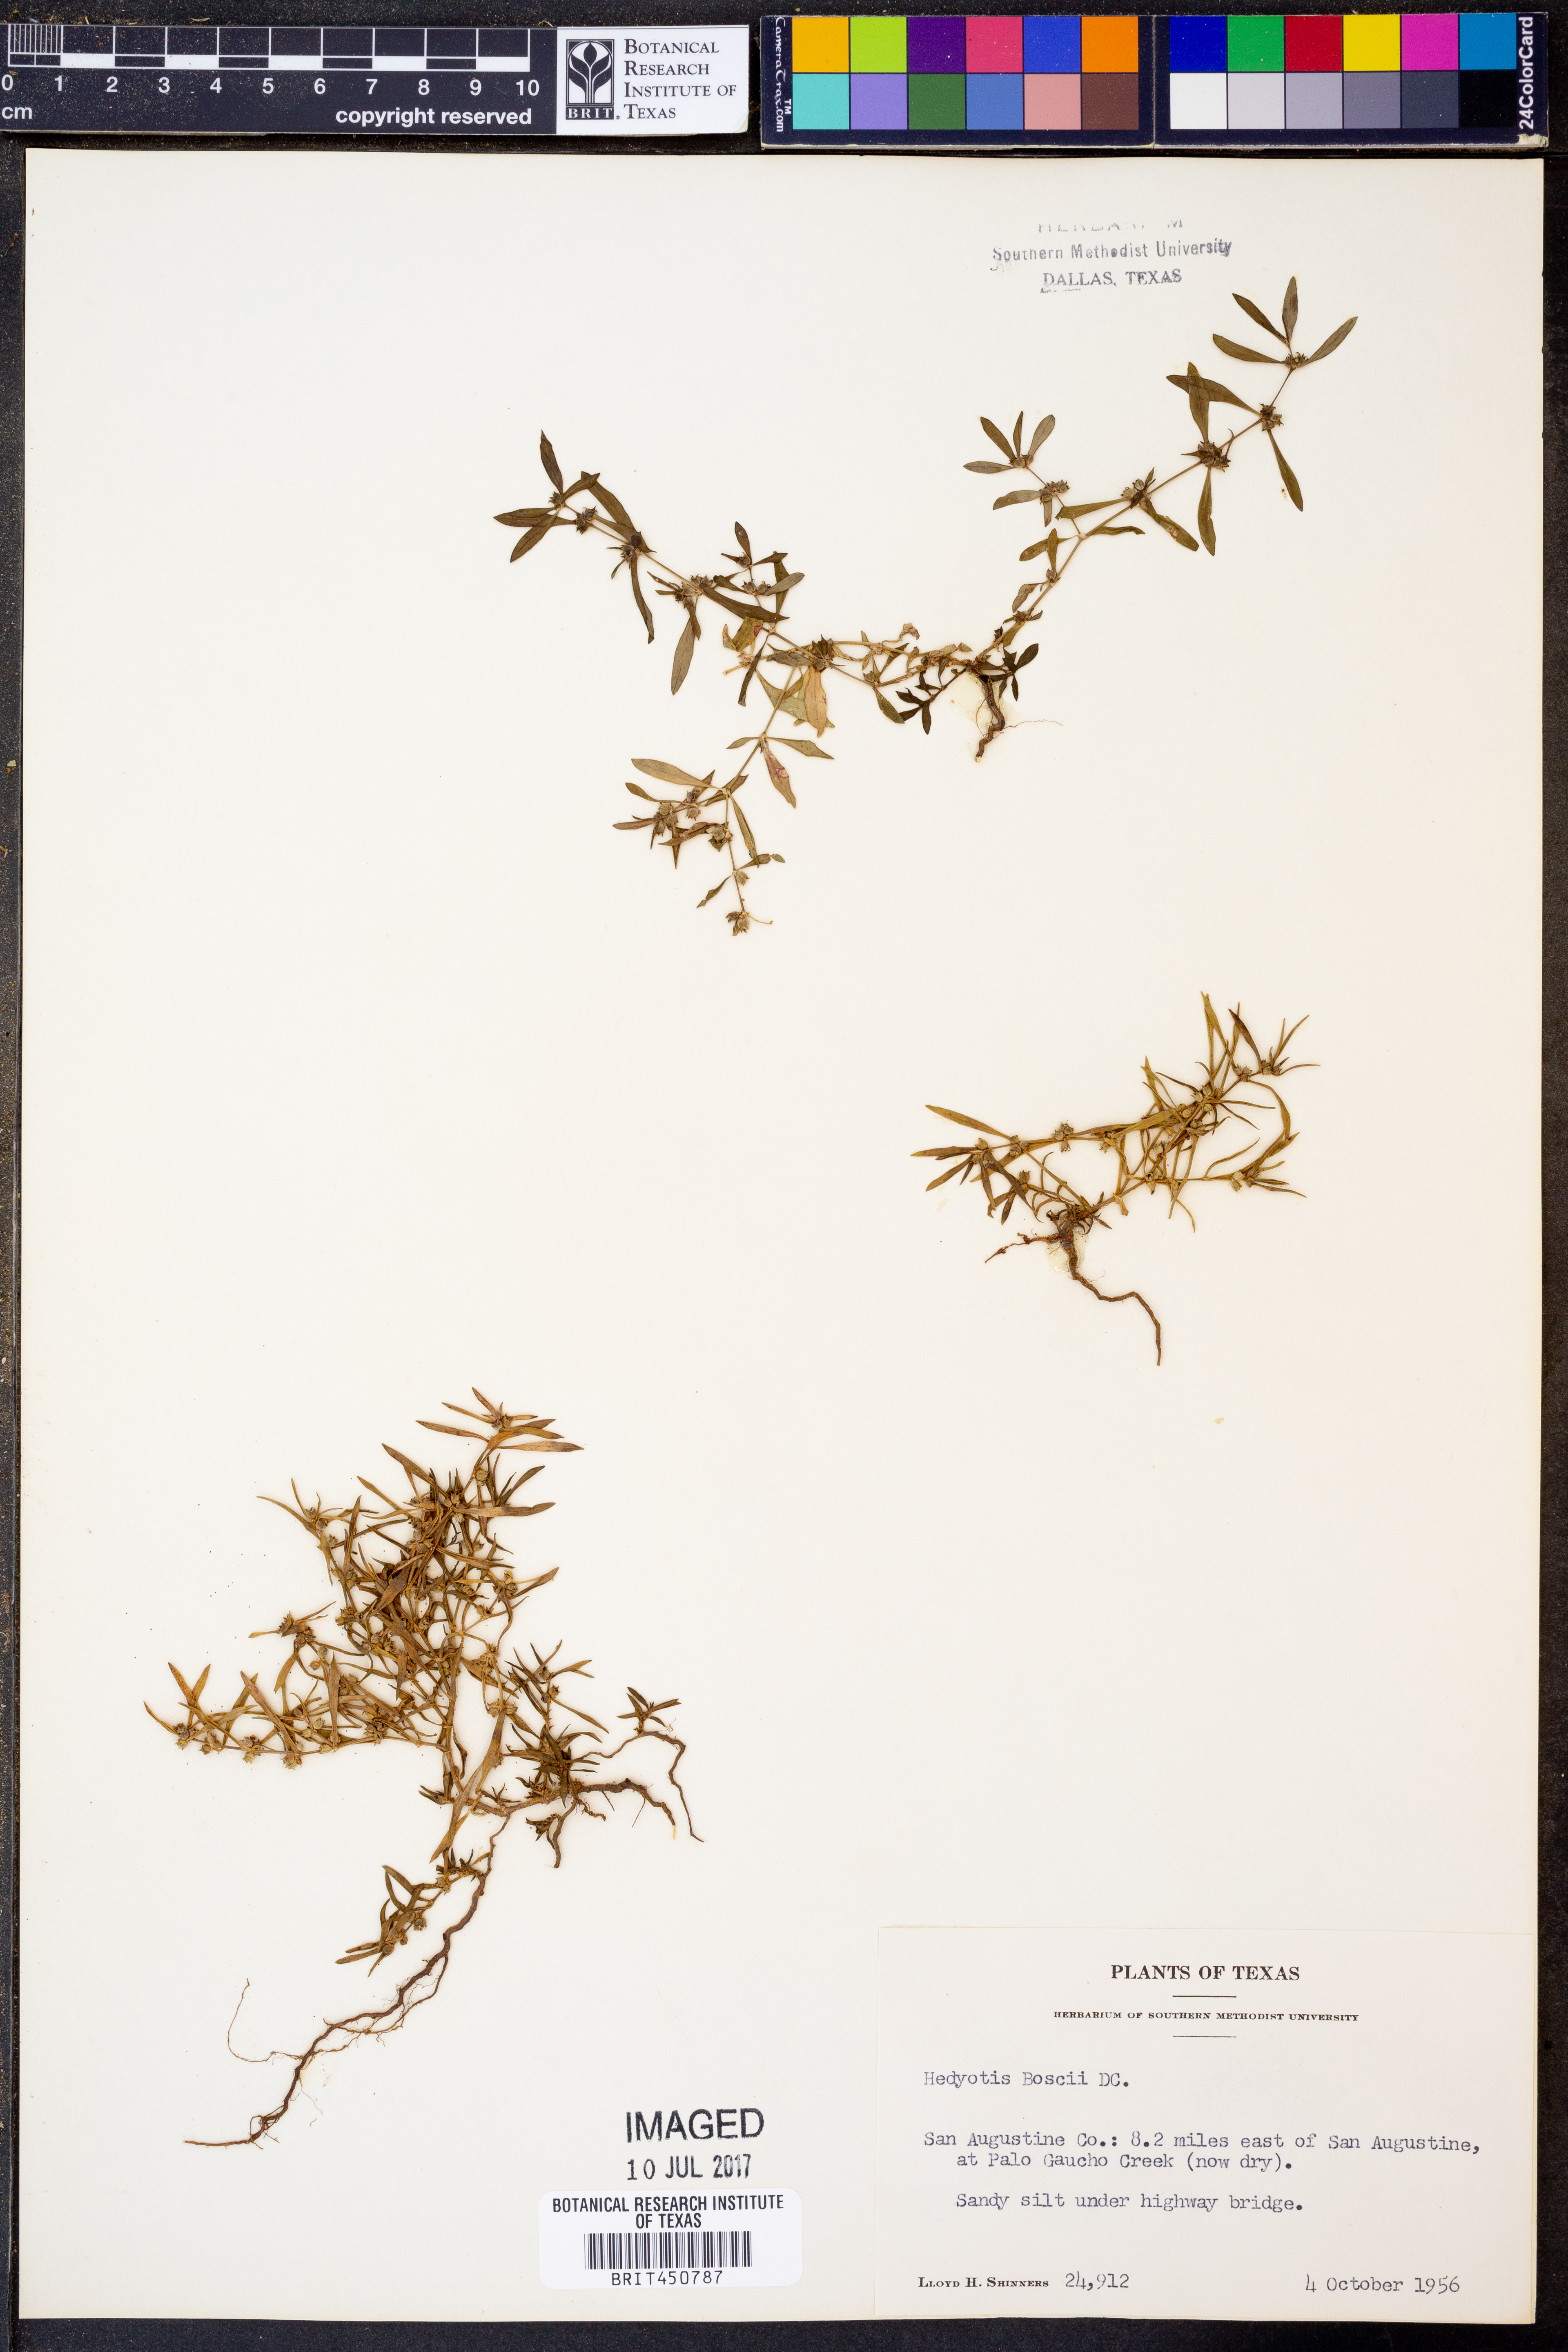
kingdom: Plantae
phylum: Tracheophyta
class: Magnoliopsida
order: Gentianales
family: Rubiaceae
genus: Oldenlandia
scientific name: Oldenlandia boscii
